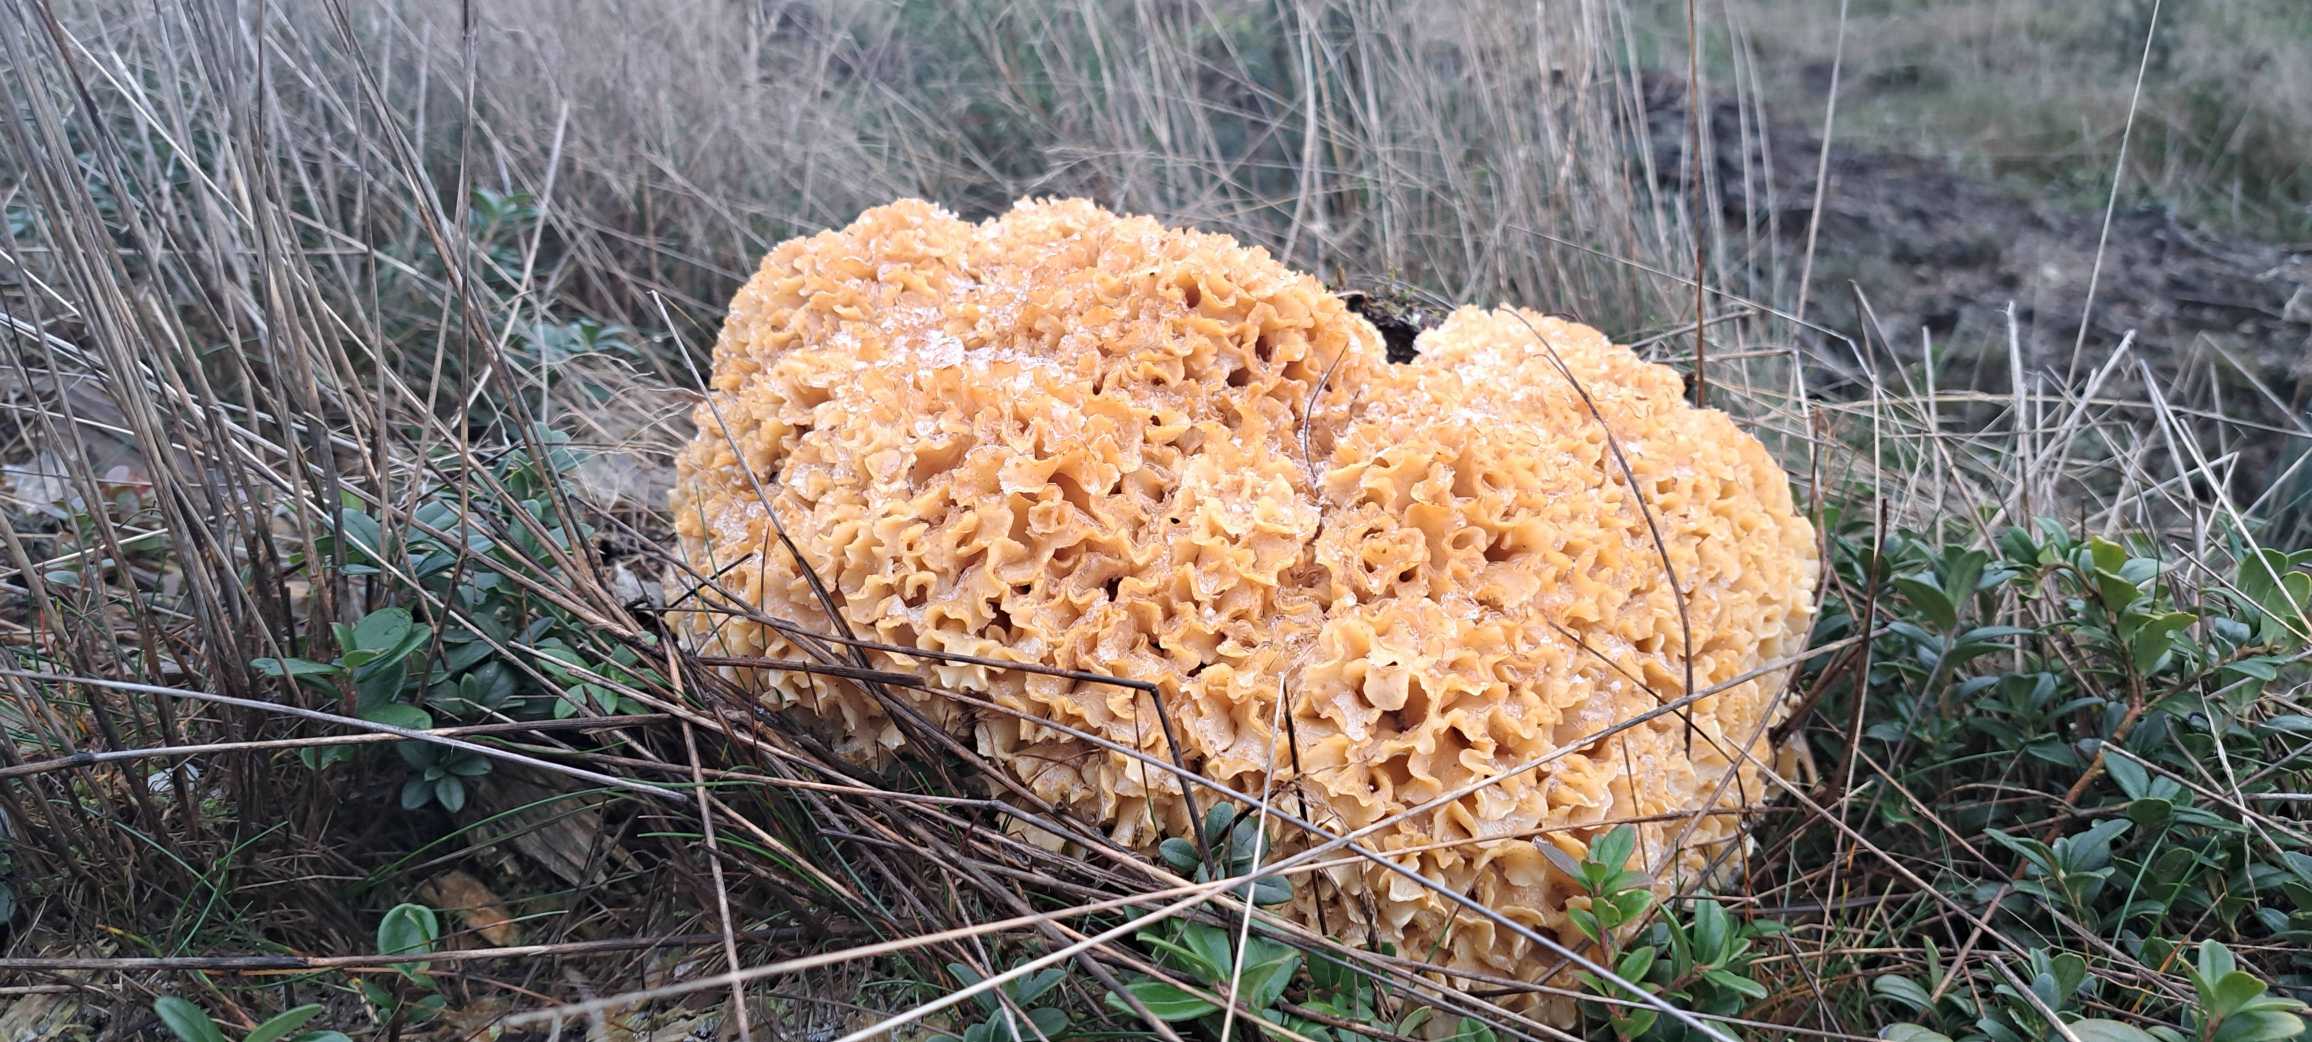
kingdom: Fungi
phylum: Basidiomycota
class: Agaricomycetes
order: Polyporales
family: Sparassidaceae
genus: Sparassis
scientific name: Sparassis crispa
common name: Kruset blomkålssvamp
